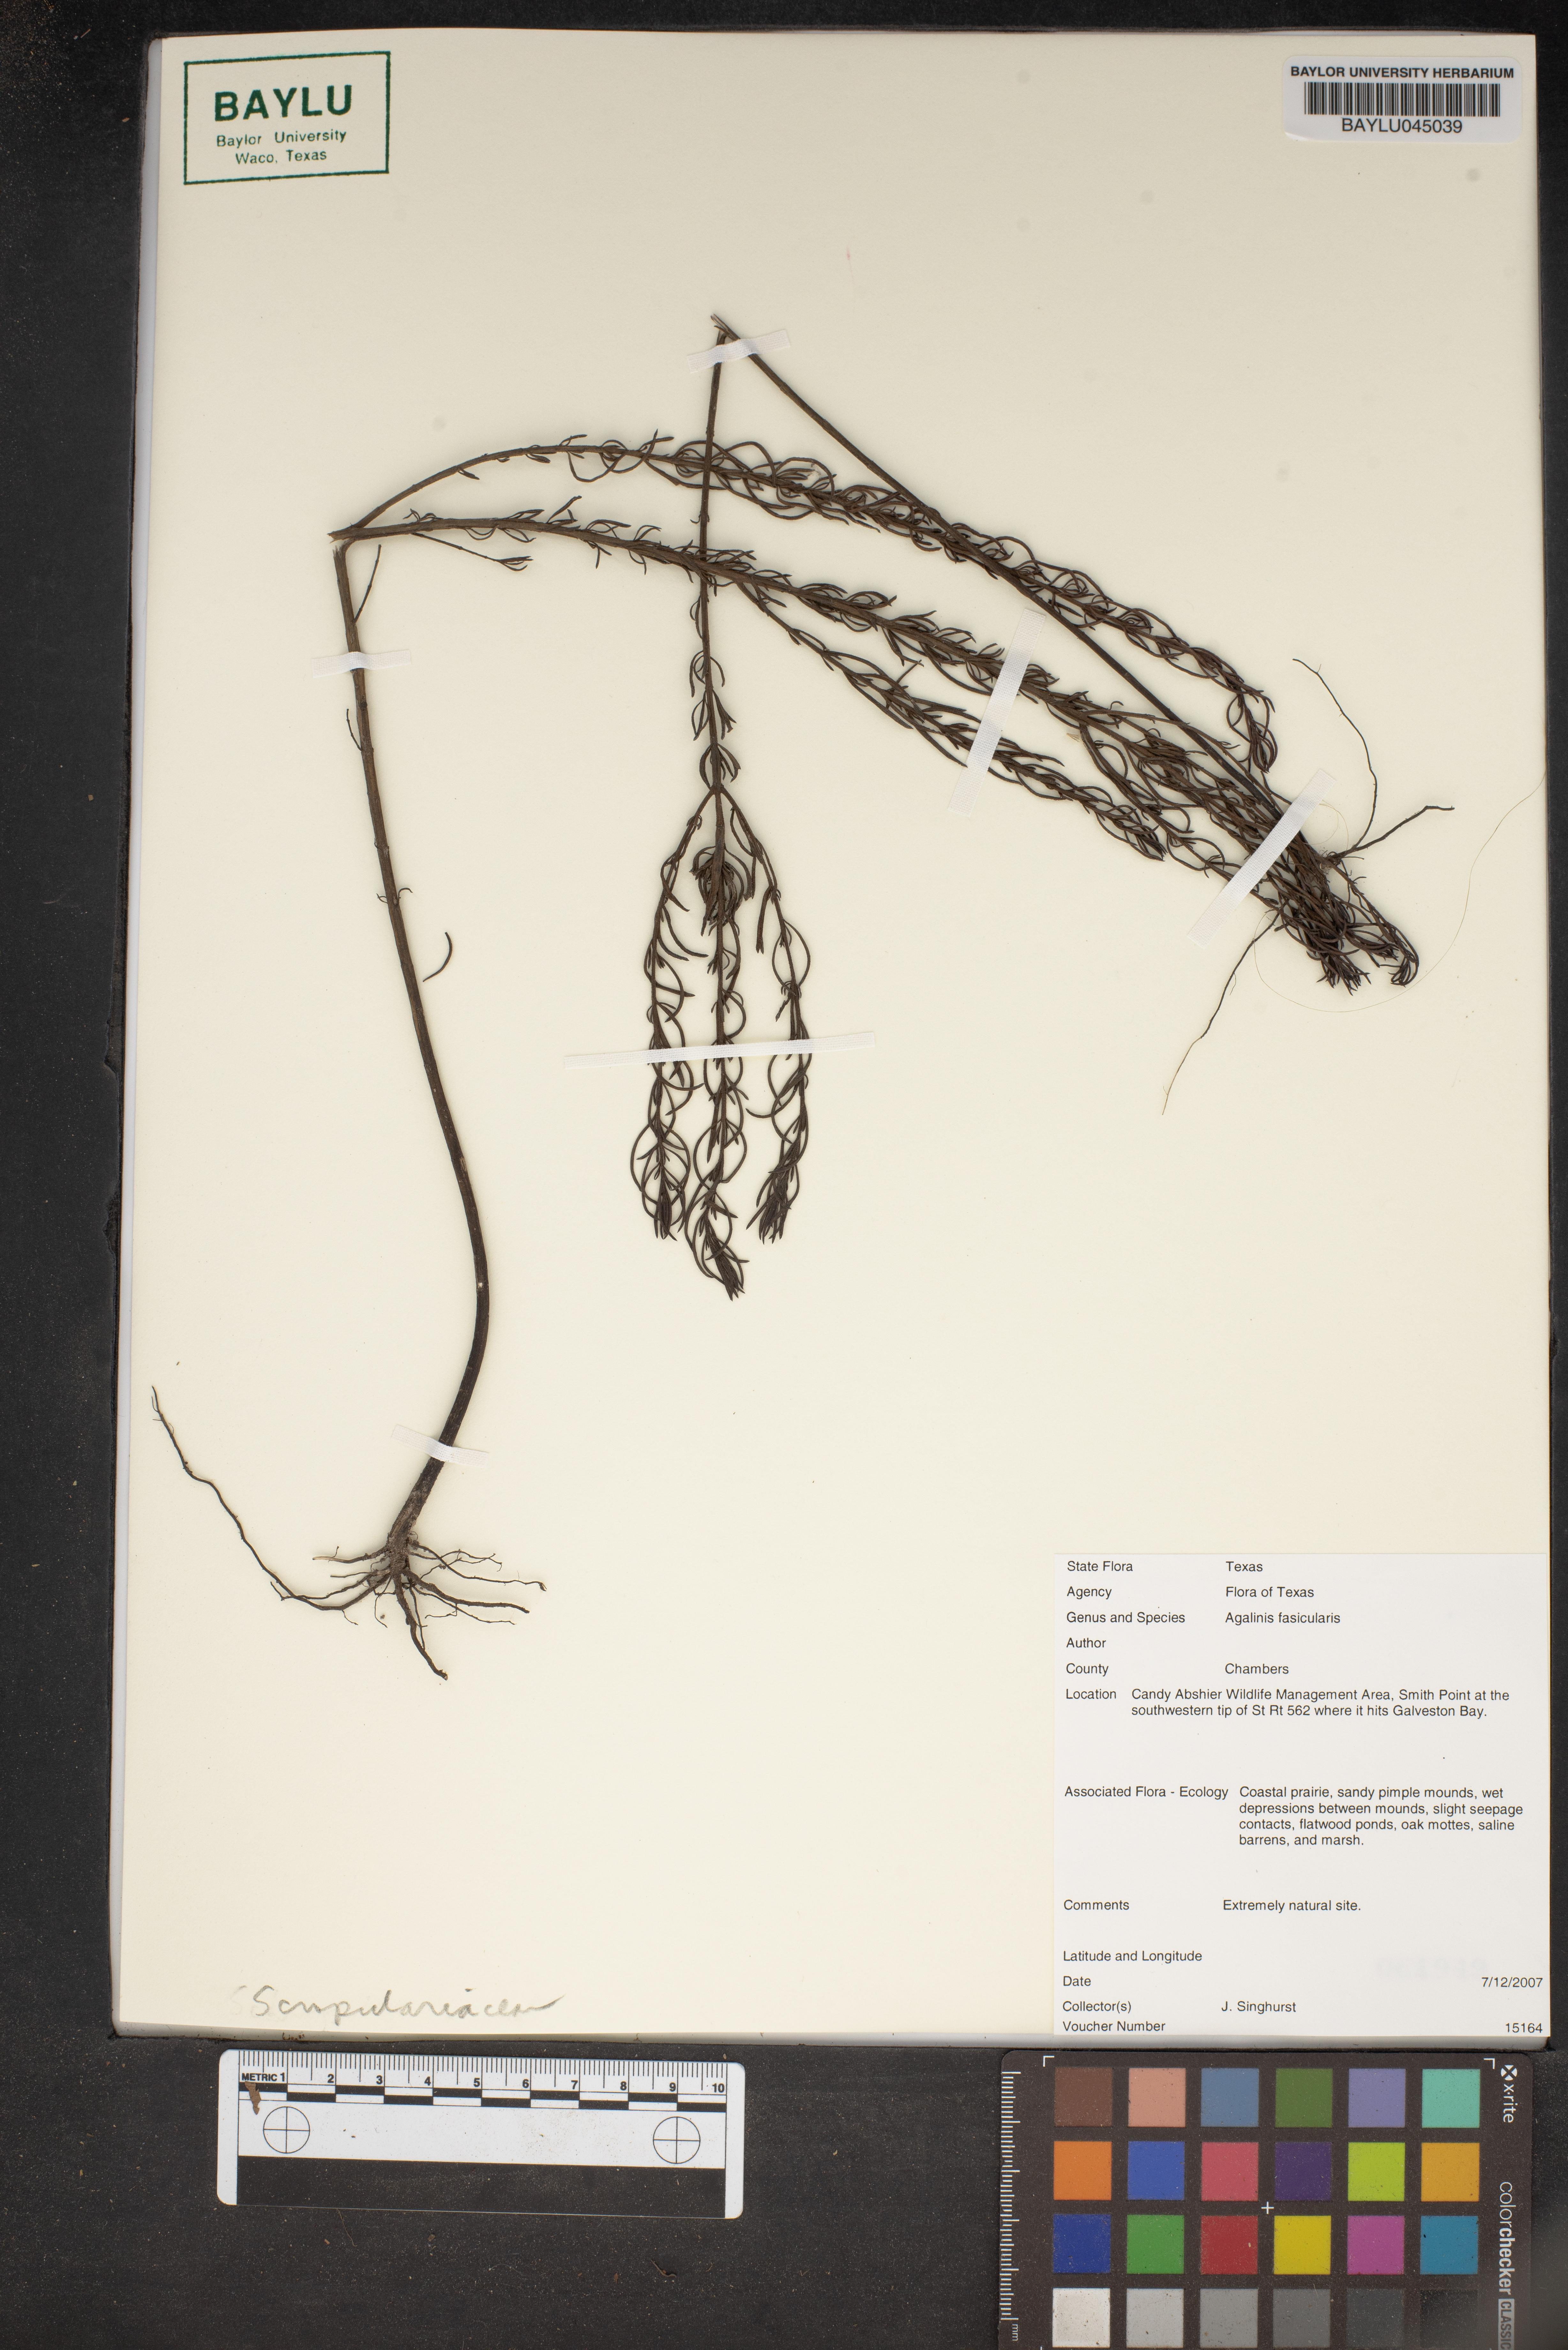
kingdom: Plantae
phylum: Tracheophyta
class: Magnoliopsida
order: Lamiales
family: Orobanchaceae
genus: Agalinis
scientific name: Agalinis
